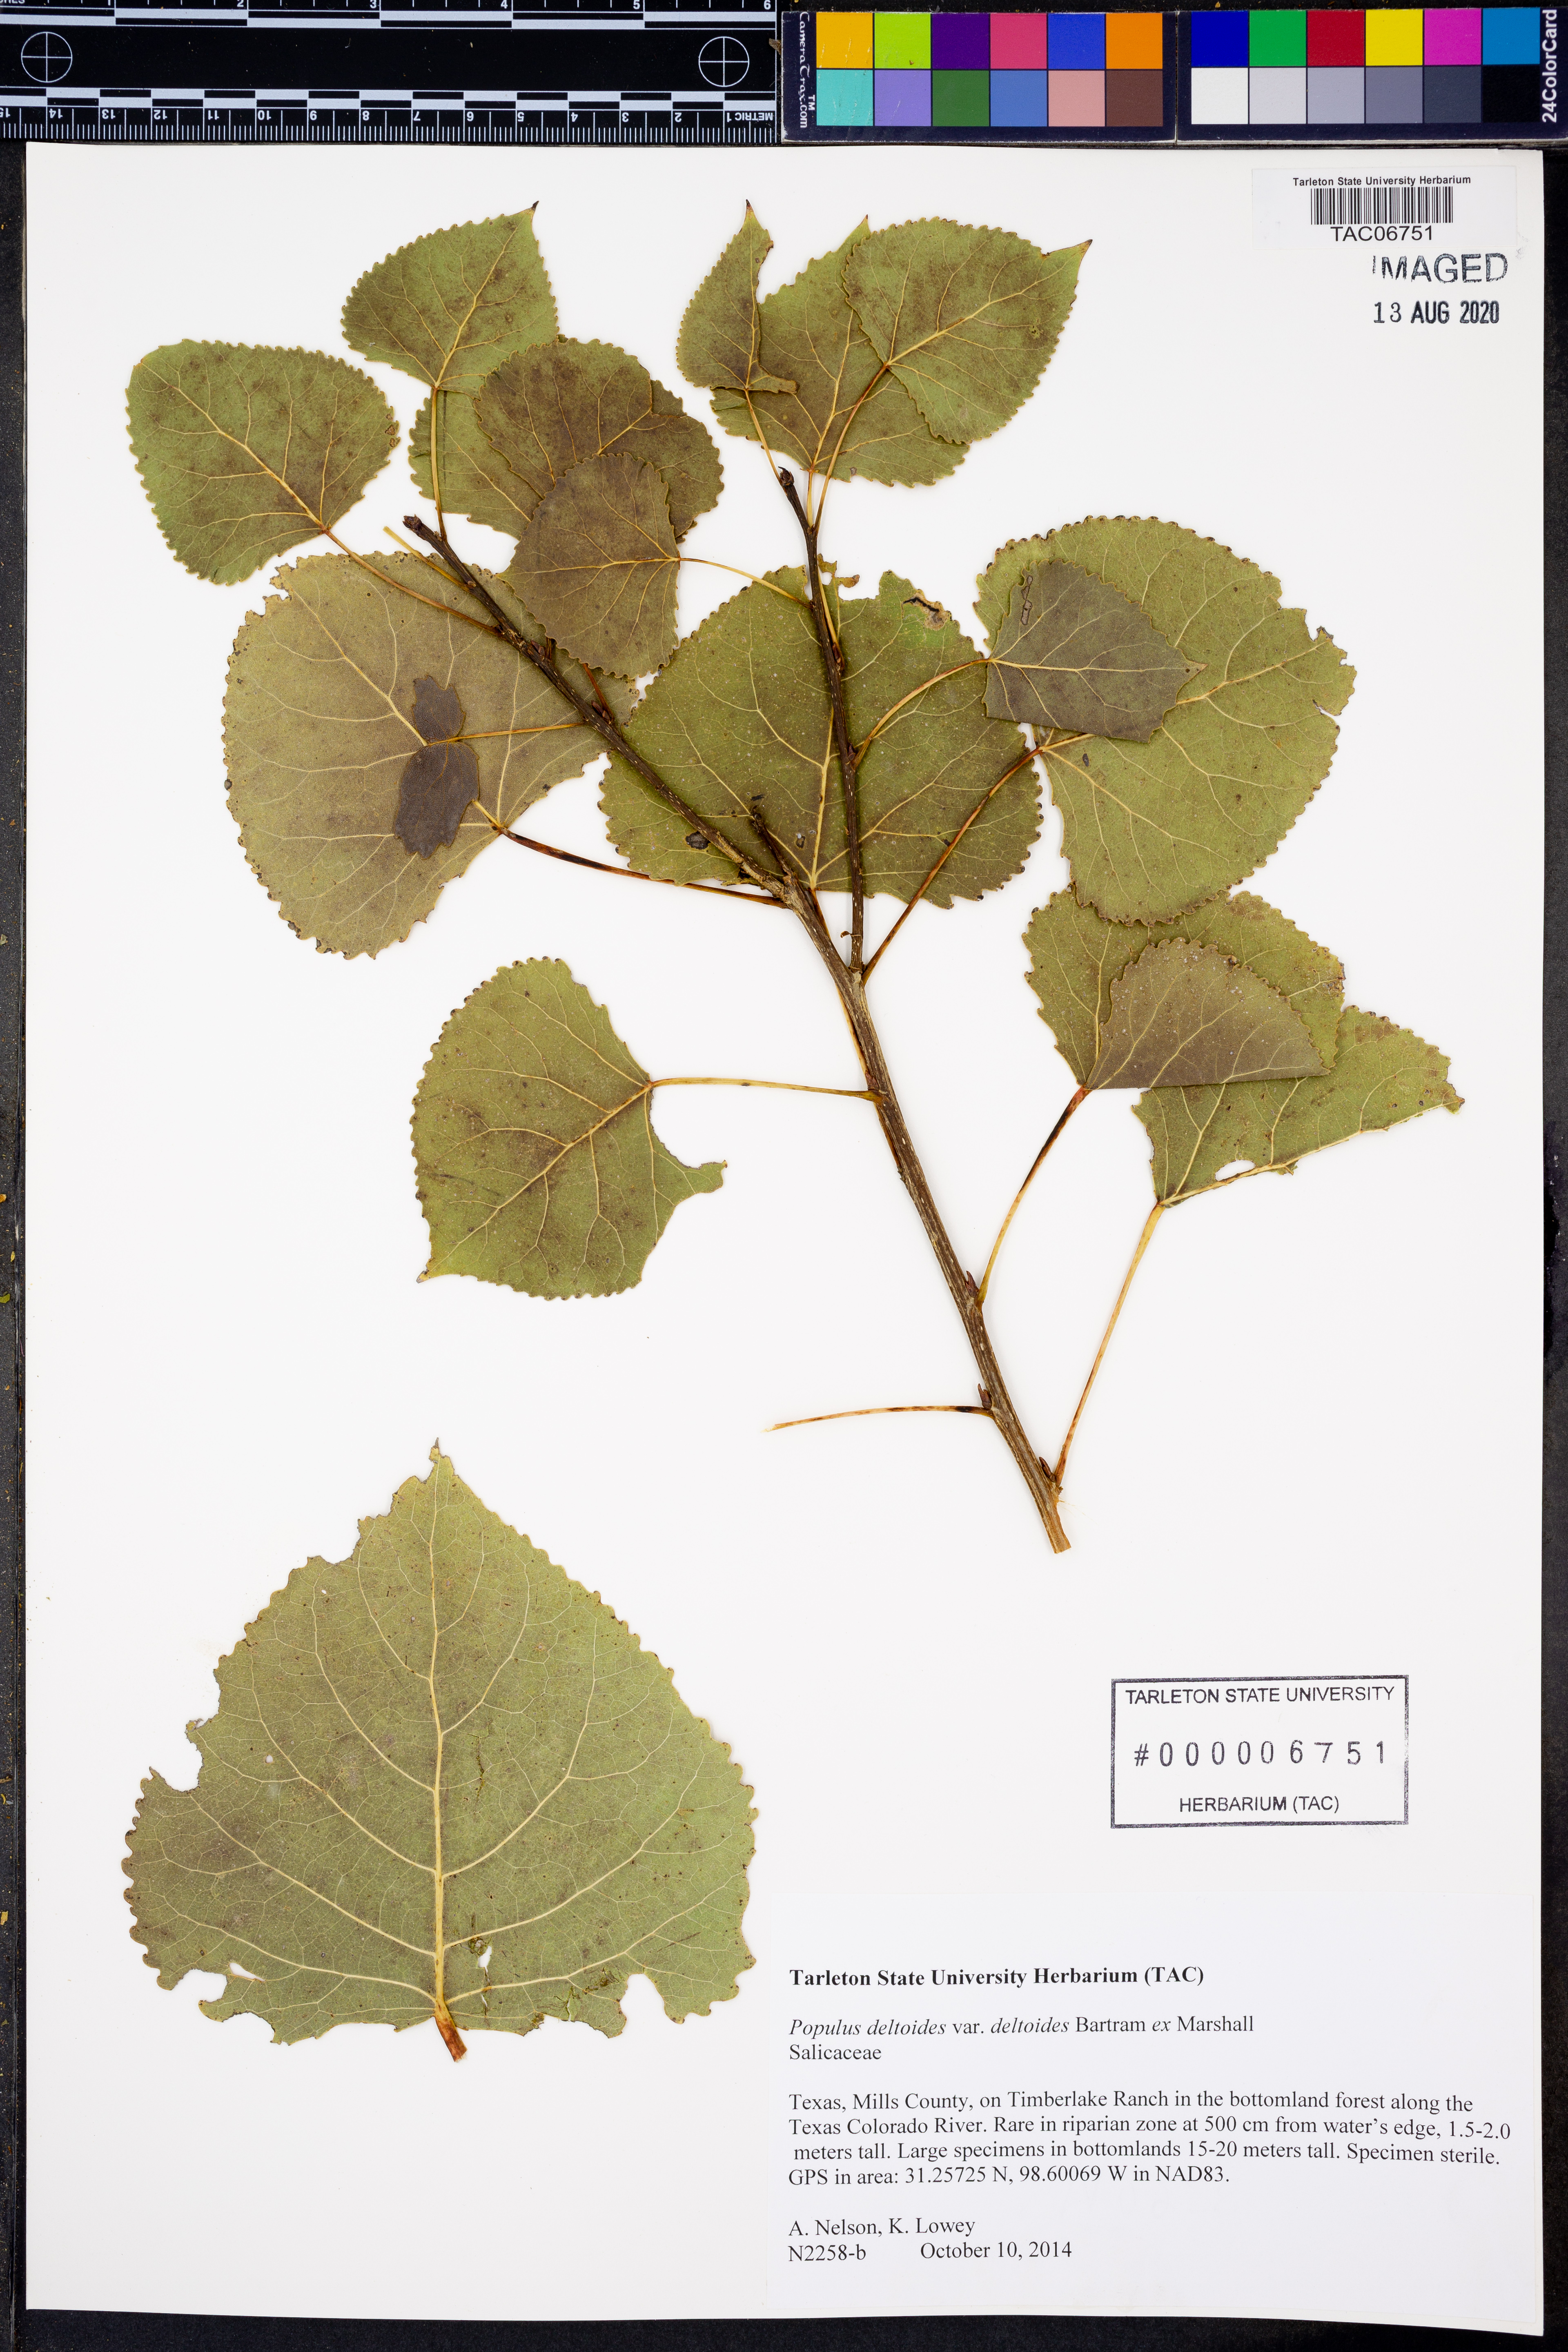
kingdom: Plantae
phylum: Tracheophyta
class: Magnoliopsida
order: Malpighiales
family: Salicaceae
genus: Populus
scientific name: Populus deltoides
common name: Eastern cottonwood
